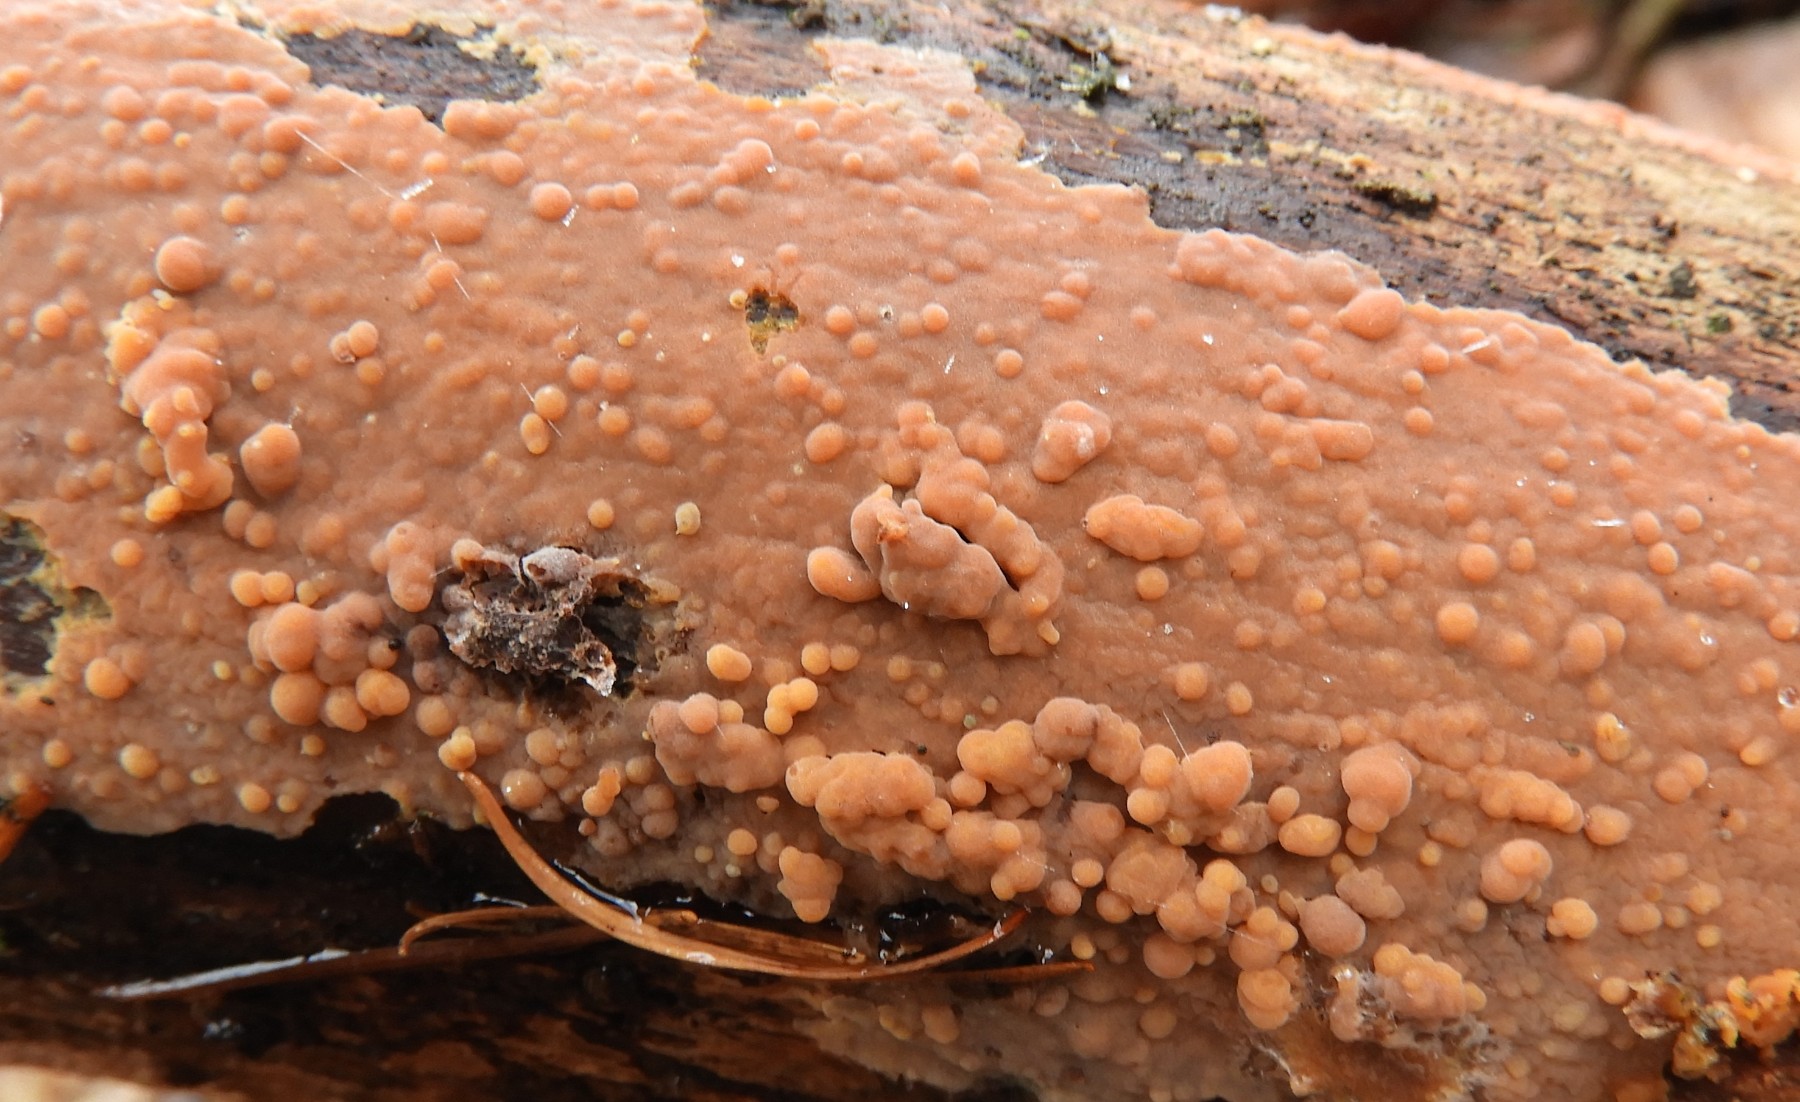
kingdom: Fungi
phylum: Basidiomycota
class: Agaricomycetes
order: Russulales
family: Peniophoraceae
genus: Peniophora
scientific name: Peniophora incarnata
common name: laksefarvet voksskind
